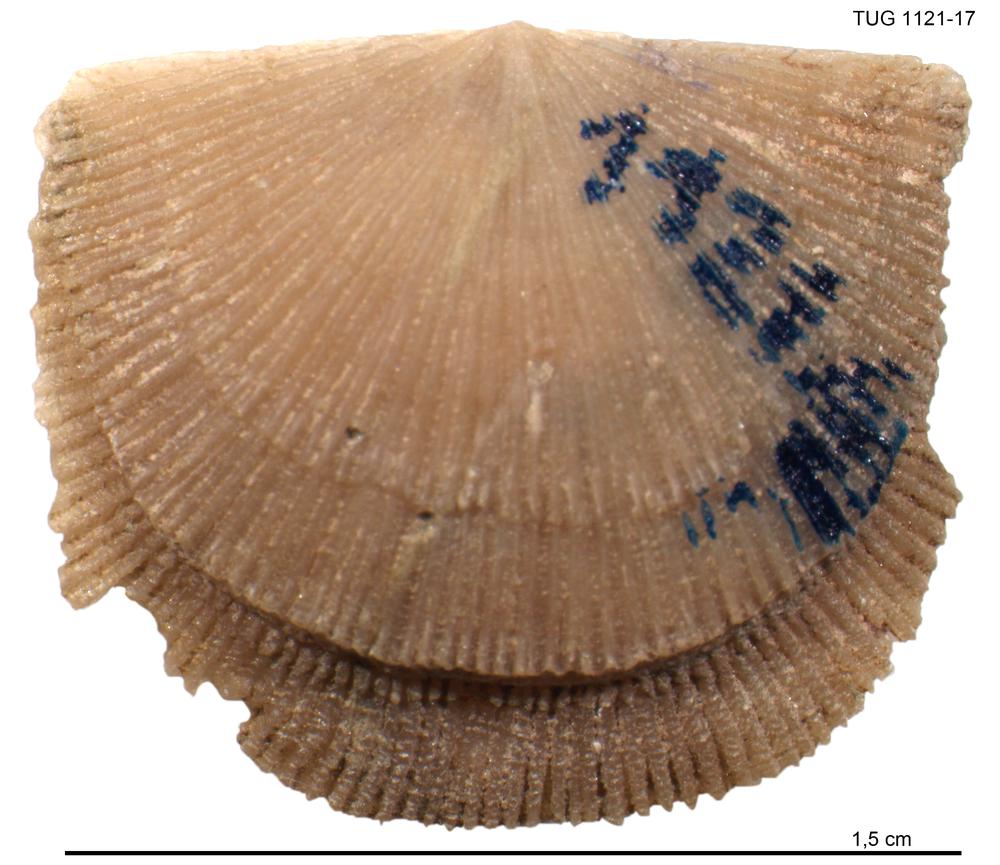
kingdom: Animalia
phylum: Brachiopoda
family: Gonambonitidae
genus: Gonambonites
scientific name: Gonambonites plana
